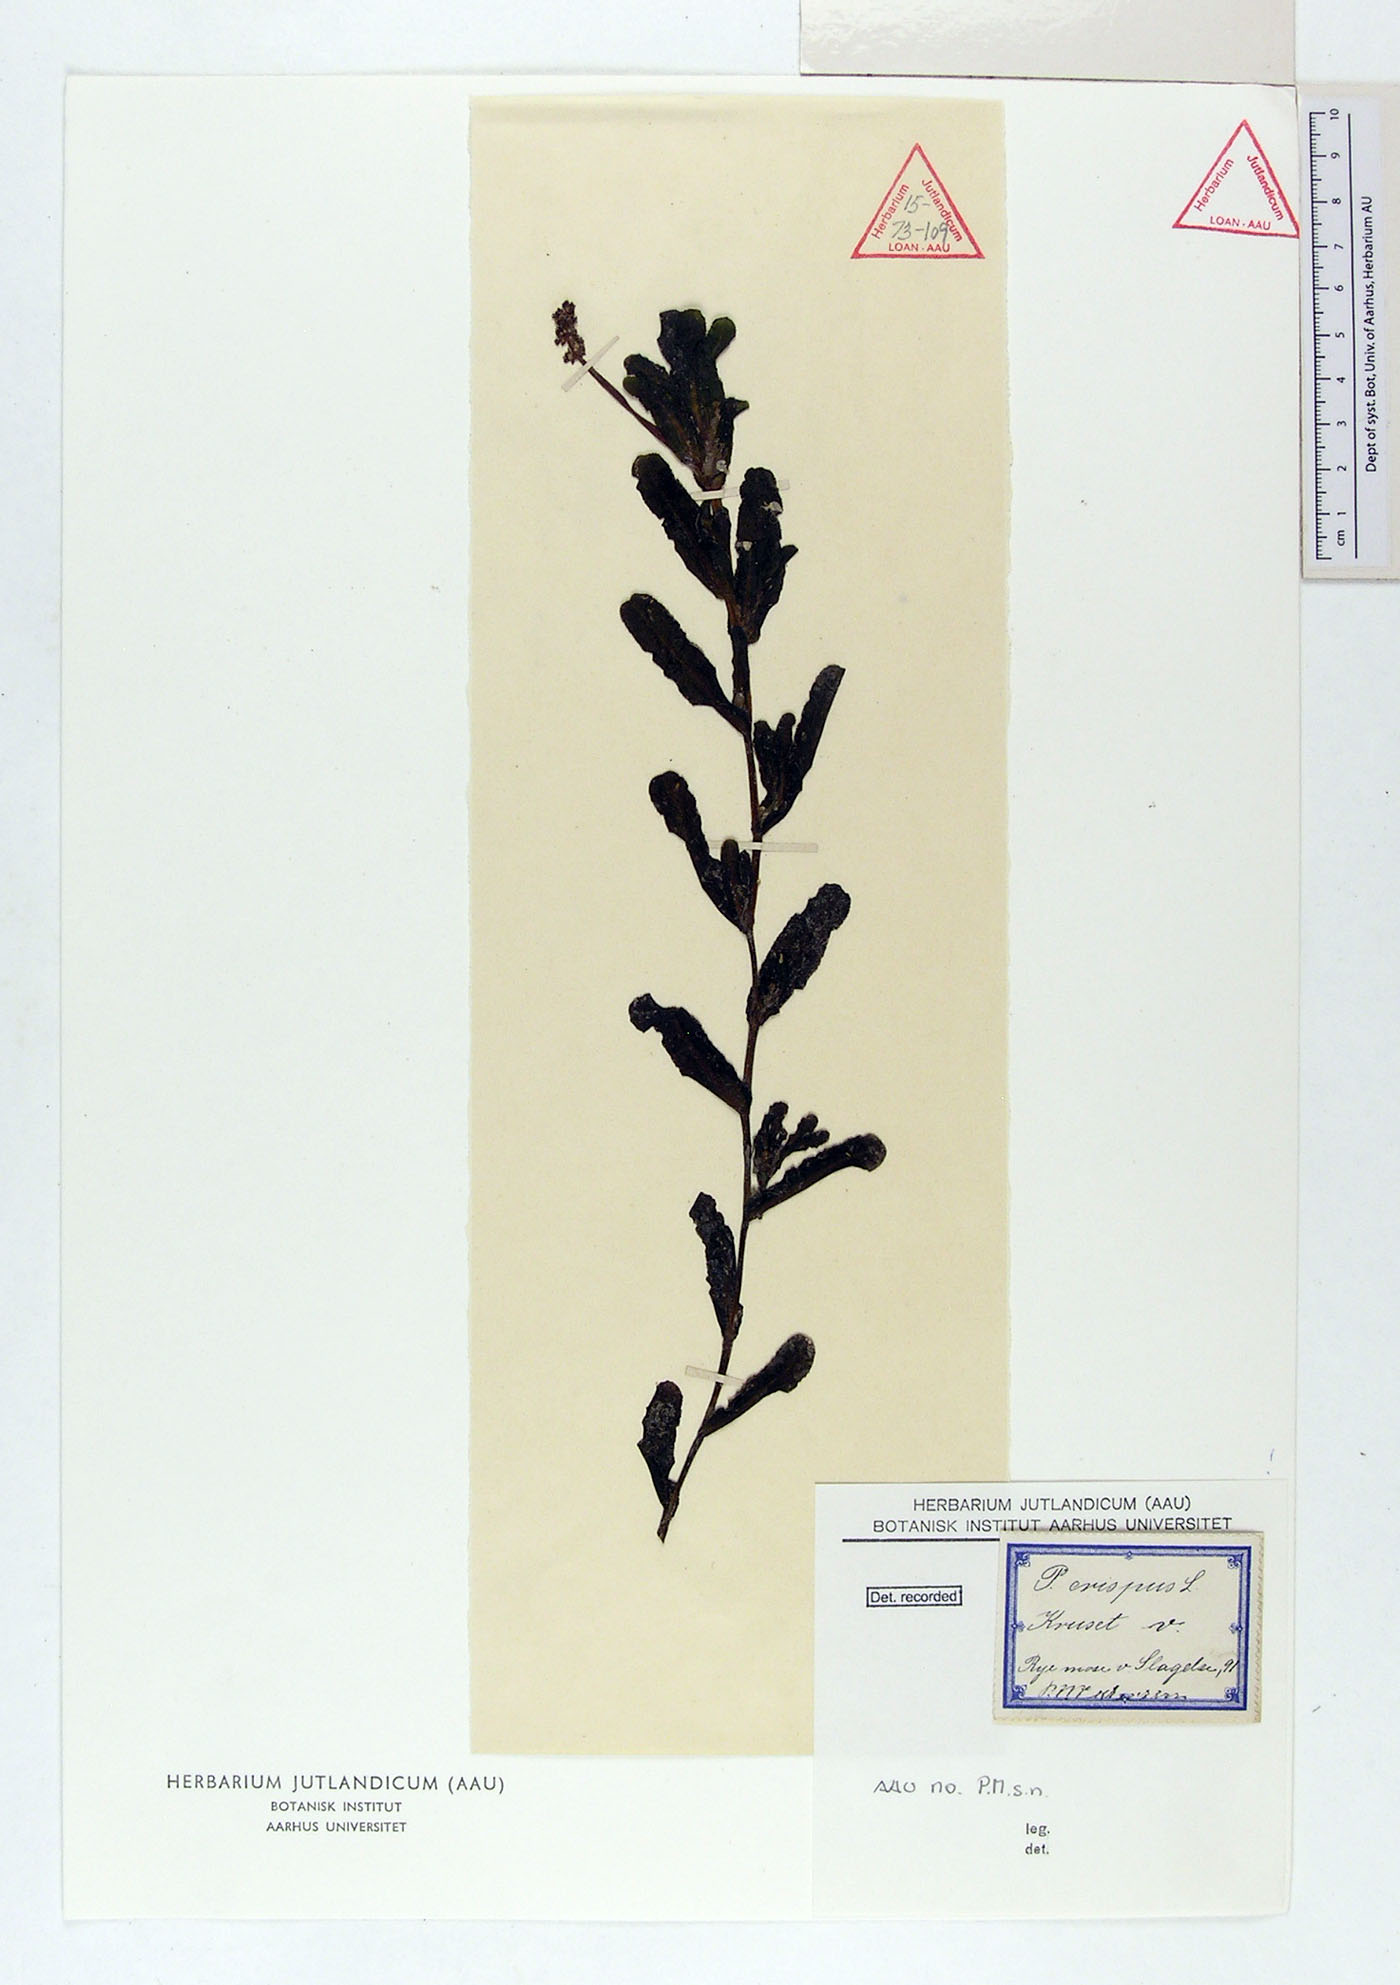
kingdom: Plantae
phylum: Tracheophyta
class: Liliopsida
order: Alismatales
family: Potamogetonaceae
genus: Potamogeton
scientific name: Potamogeton crispus
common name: Curled pondweed
